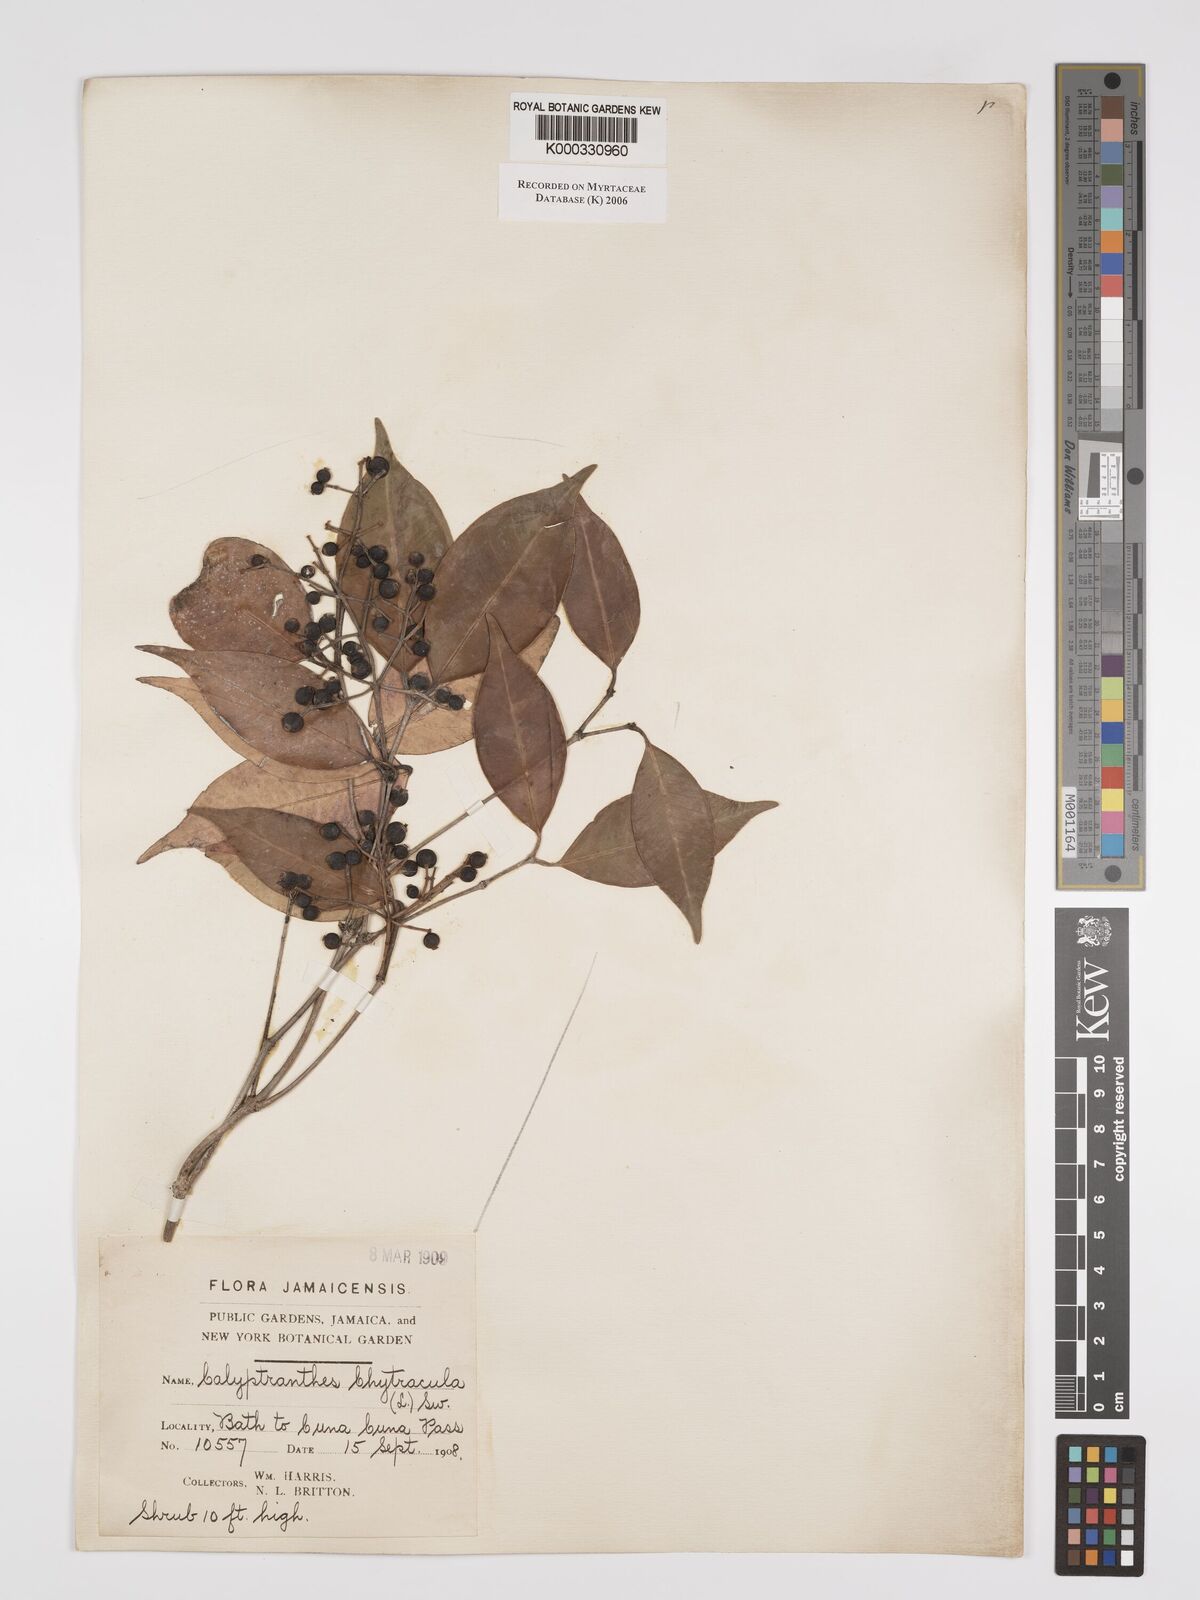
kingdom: Plantae
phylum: Tracheophyta
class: Magnoliopsida
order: Myrtales
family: Myrtaceae
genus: Myrcia
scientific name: Myrcia chytraculia
